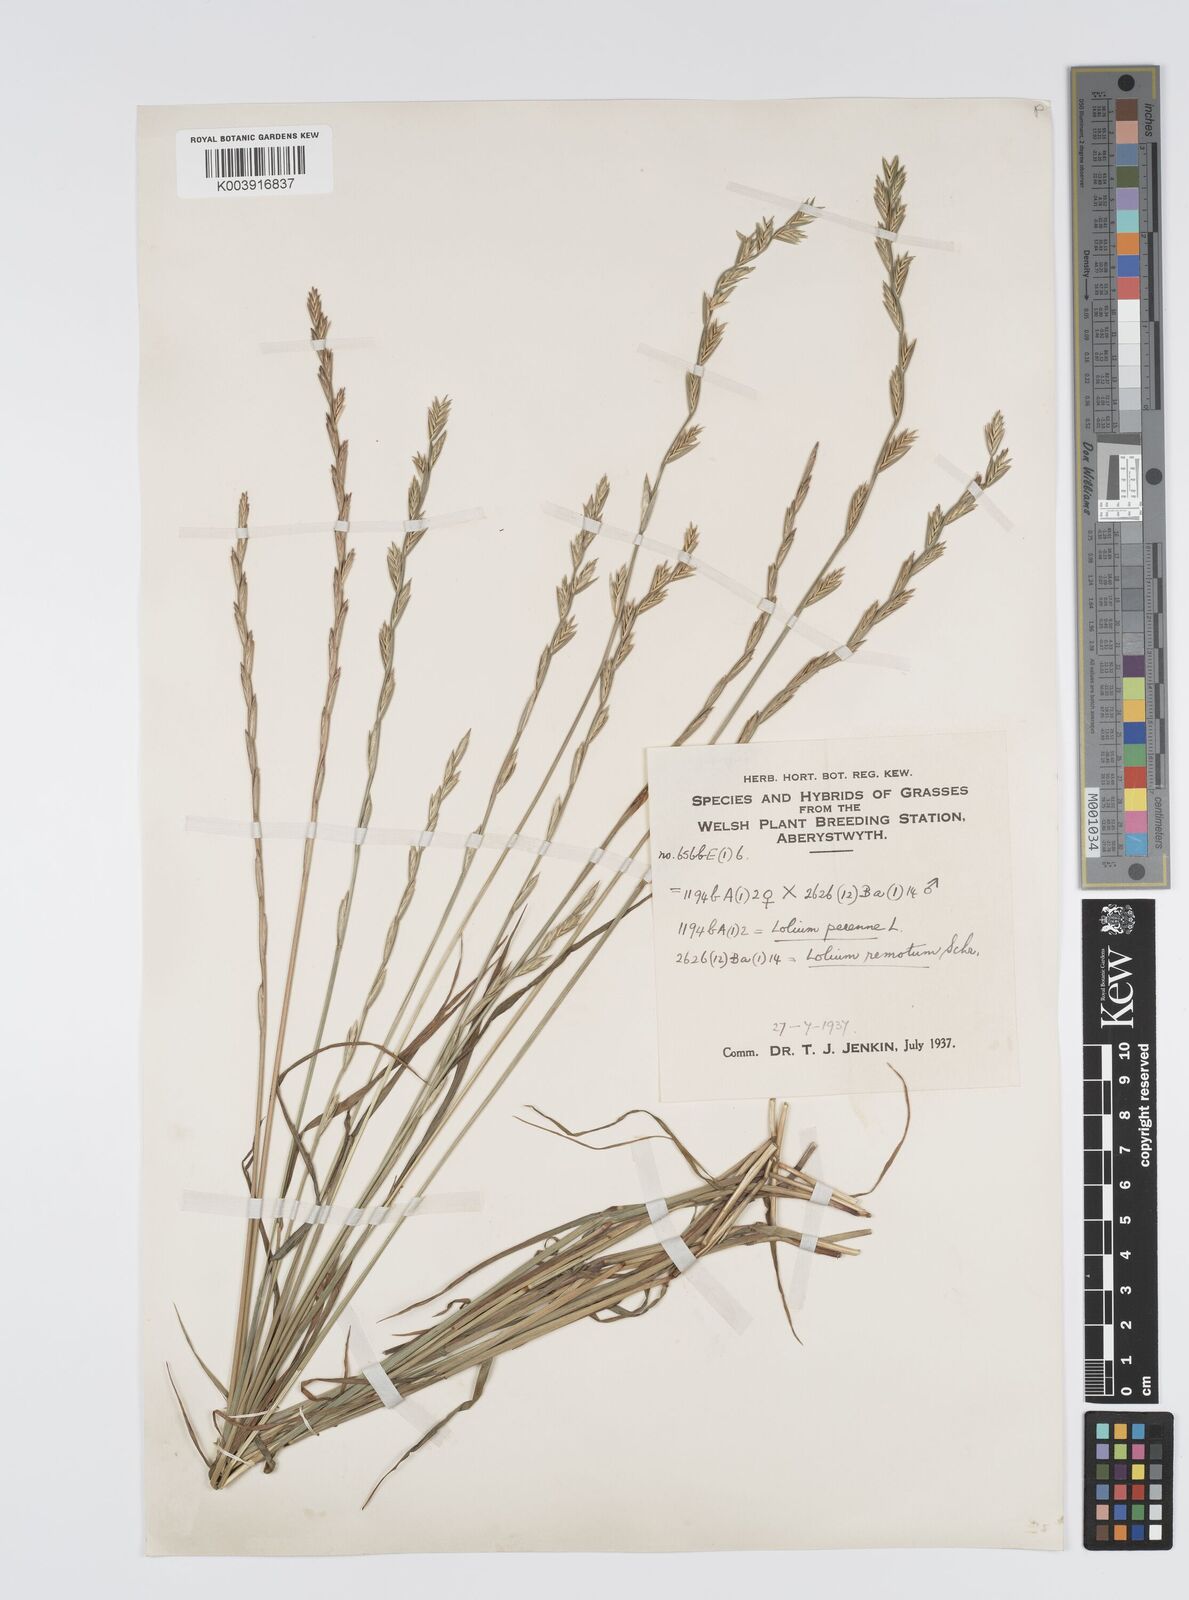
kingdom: Plantae
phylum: Tracheophyta
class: Liliopsida
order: Poales
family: Poaceae
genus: Lolium
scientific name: Lolium perenne
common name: Perennial ryegrass
